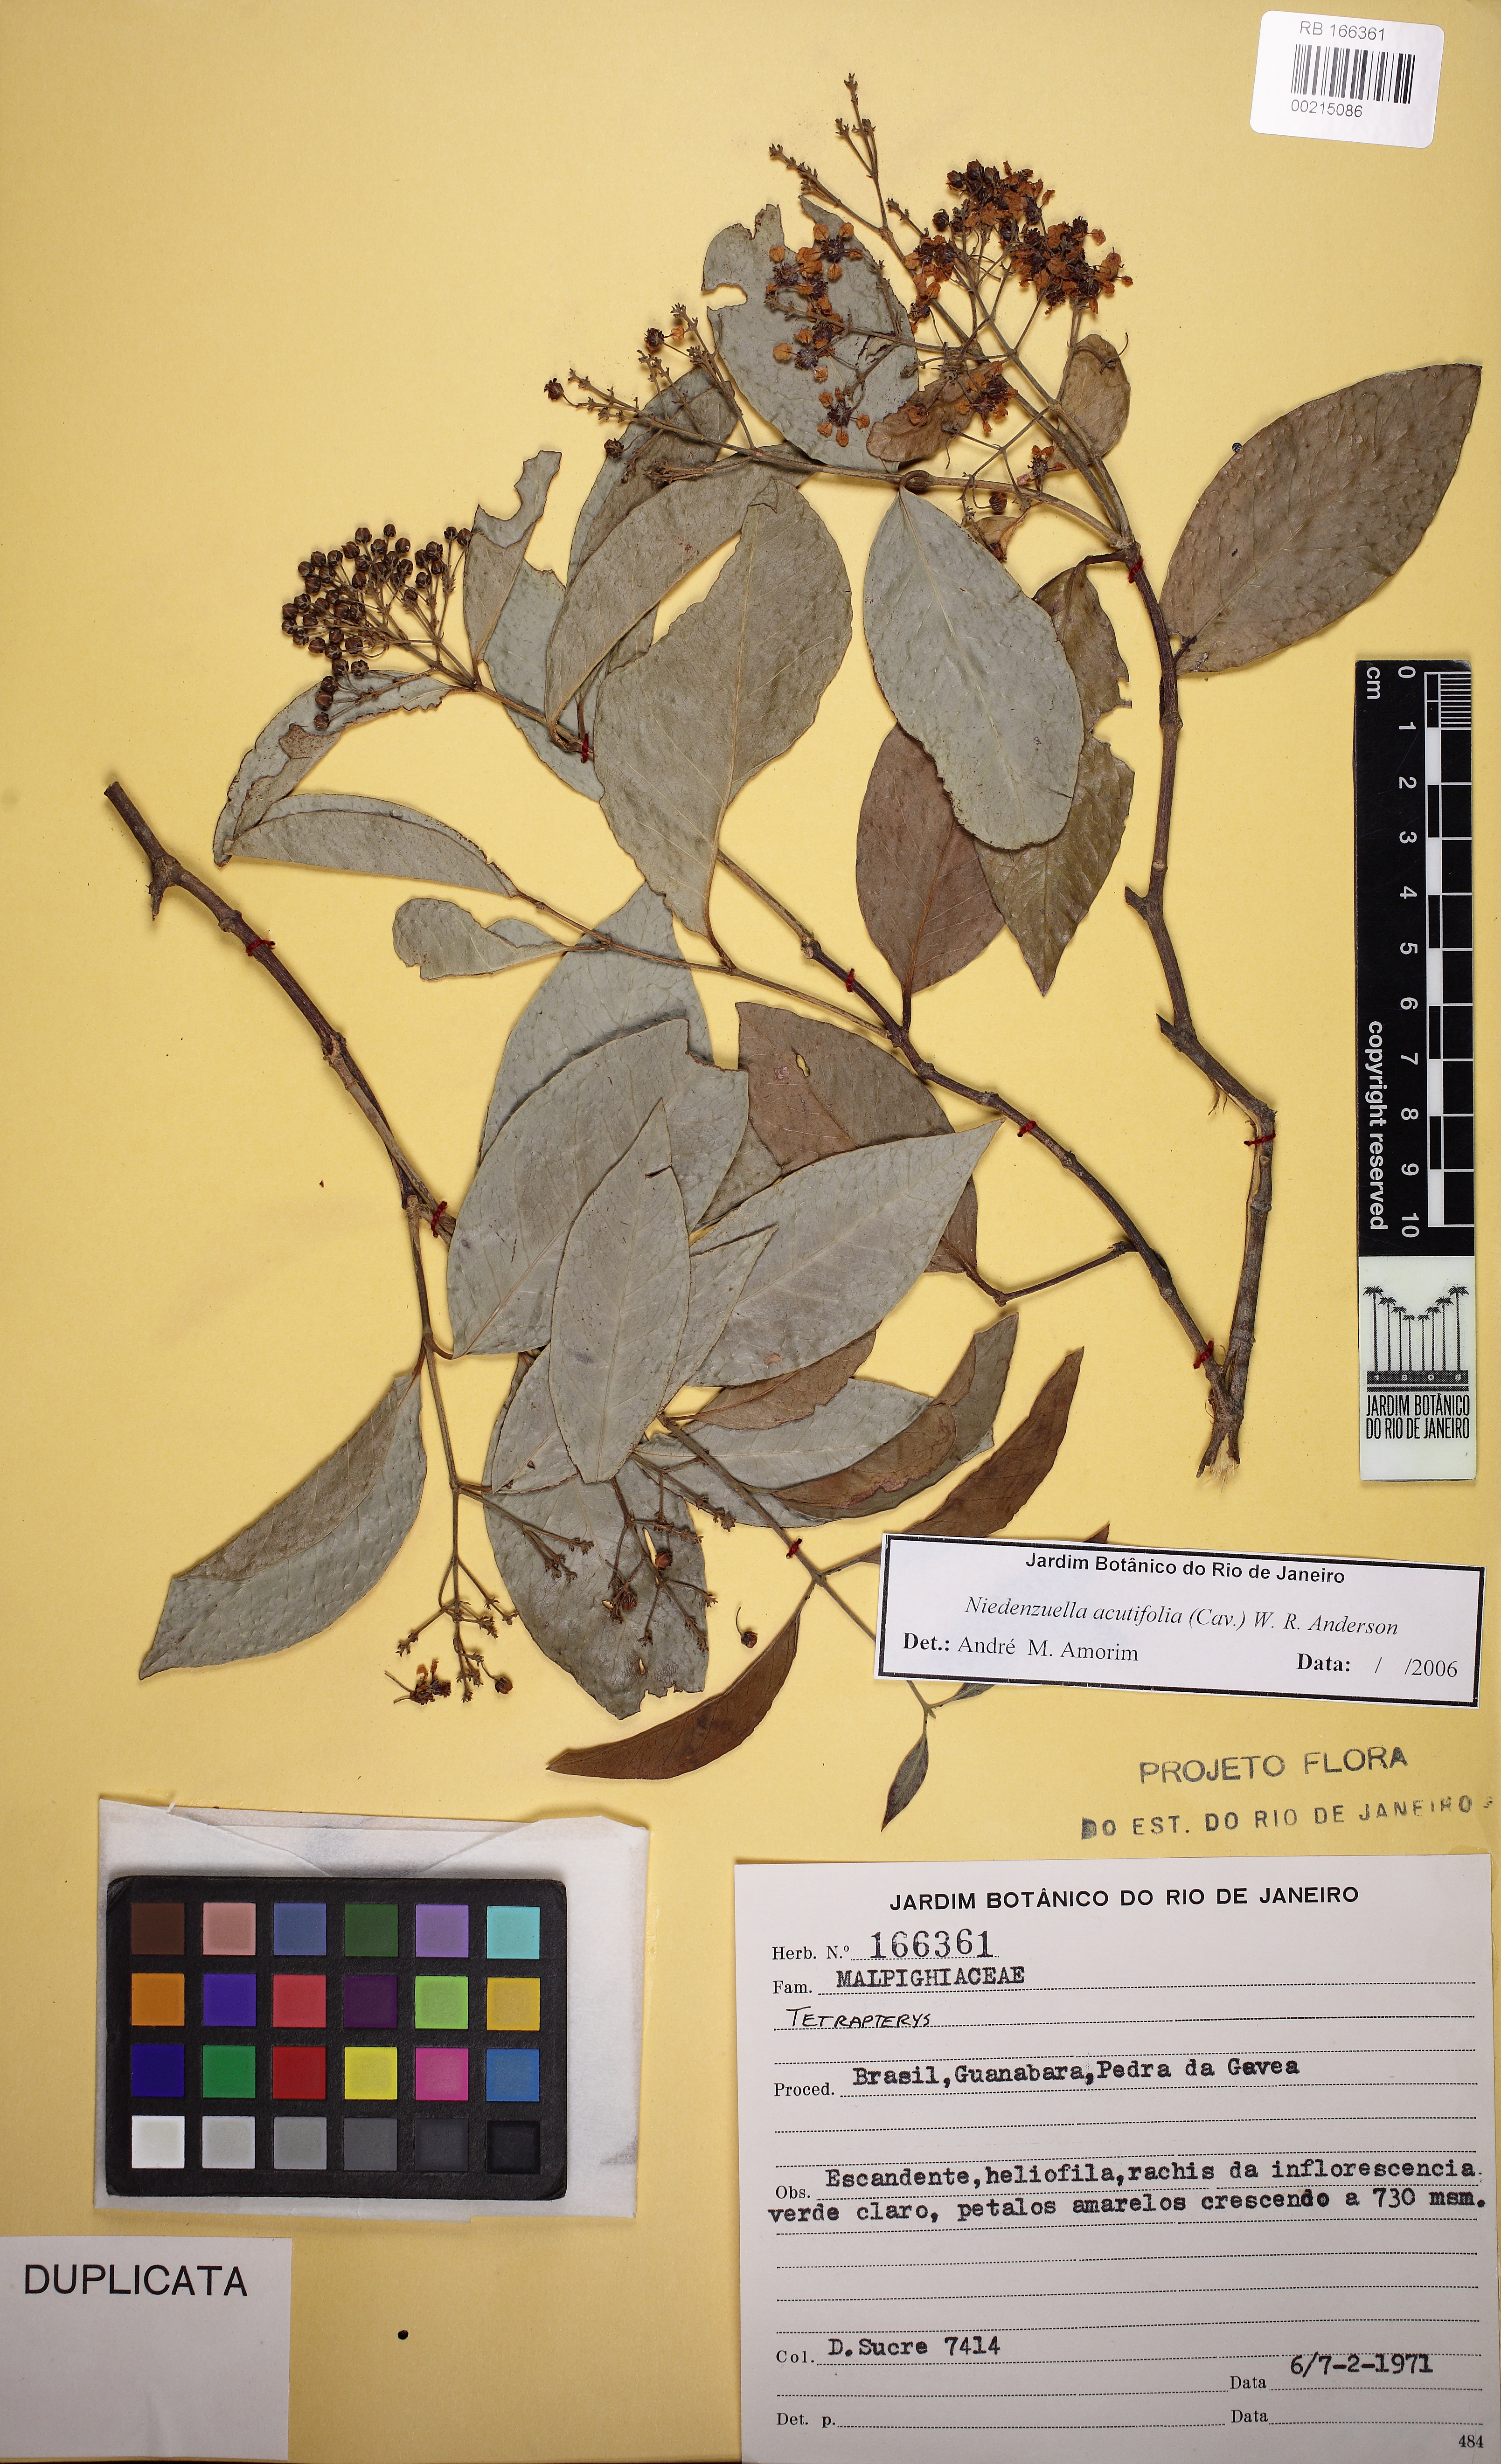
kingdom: Plantae
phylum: Tracheophyta
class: Magnoliopsida
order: Malpighiales
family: Malpighiaceae
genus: Niedenzuella
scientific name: Niedenzuella acutifolia
